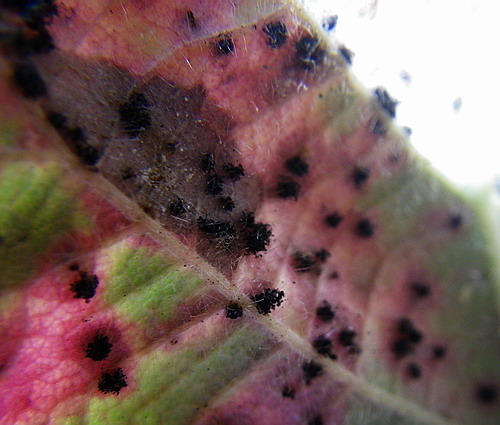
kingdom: Fungi
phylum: Basidiomycota
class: Pucciniomycetes
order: Pucciniales
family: Phragmidiaceae
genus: Phragmidium
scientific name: Phragmidium violaceum
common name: violet flercellerust
